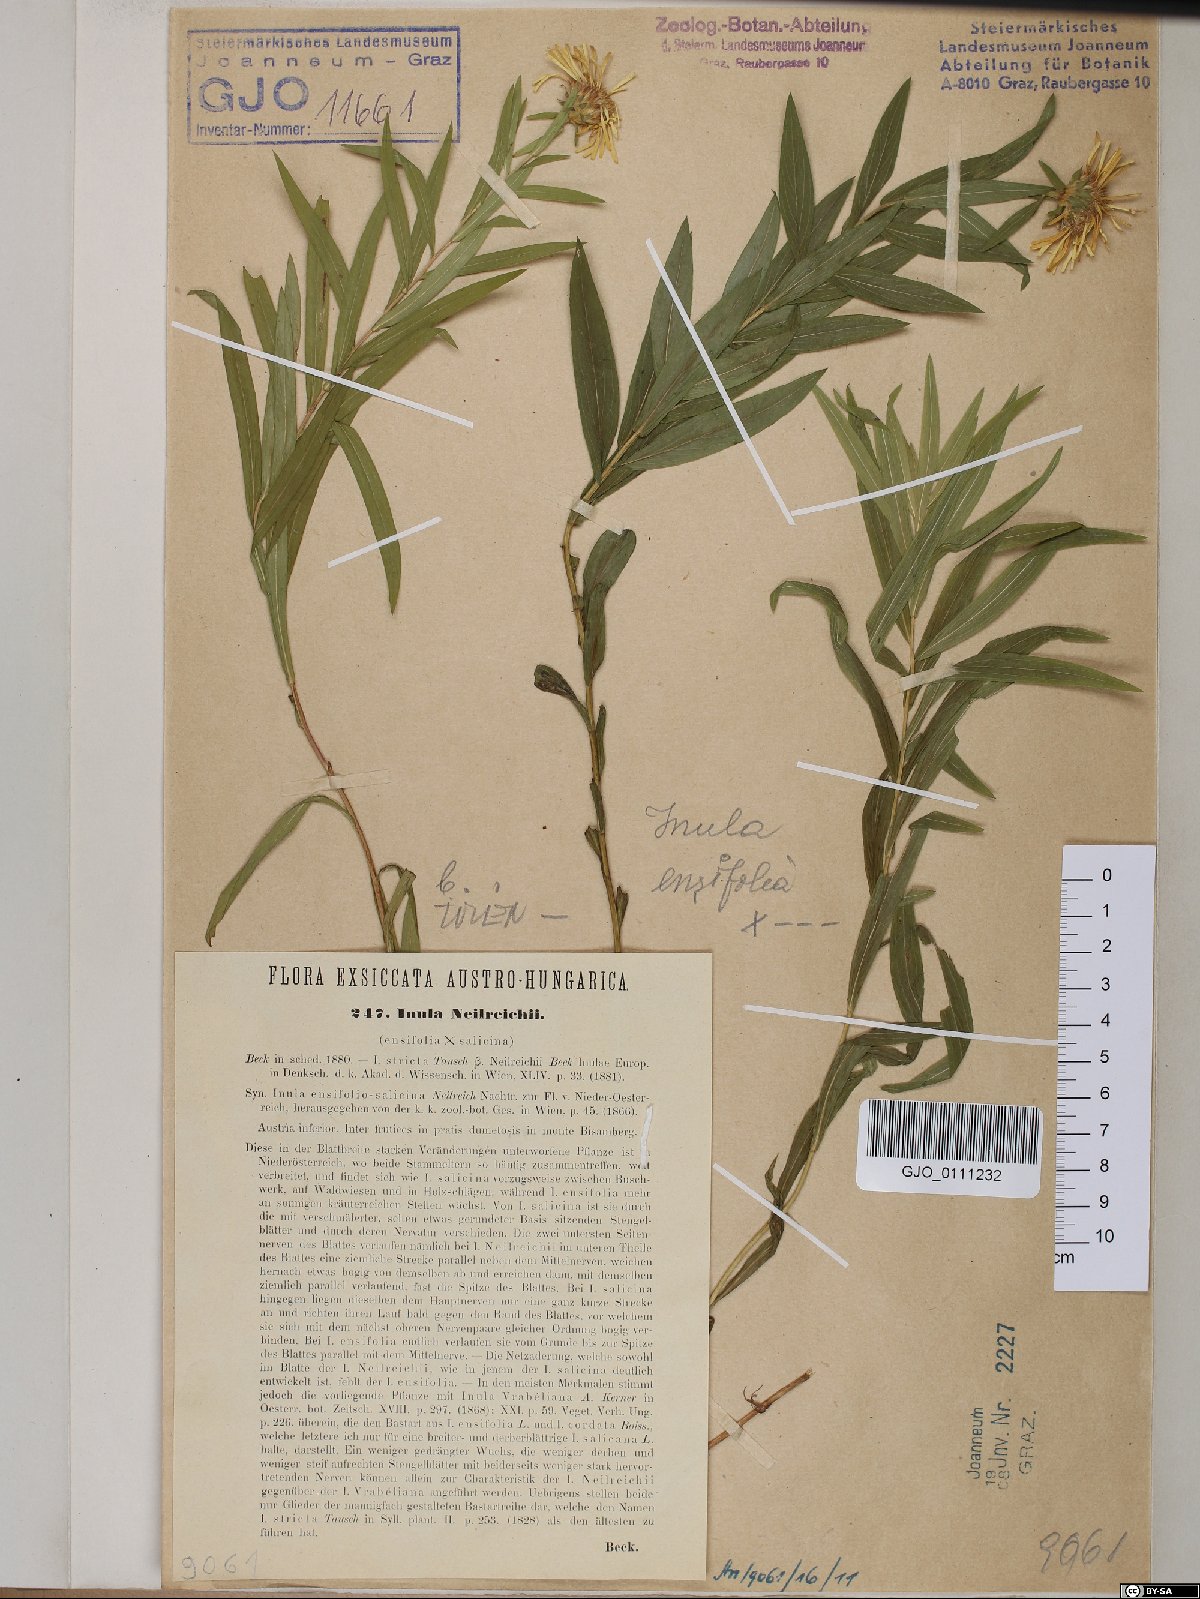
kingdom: Plantae
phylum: Tracheophyta
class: Magnoliopsida
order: Asterales
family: Asteraceae
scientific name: Asteraceae
